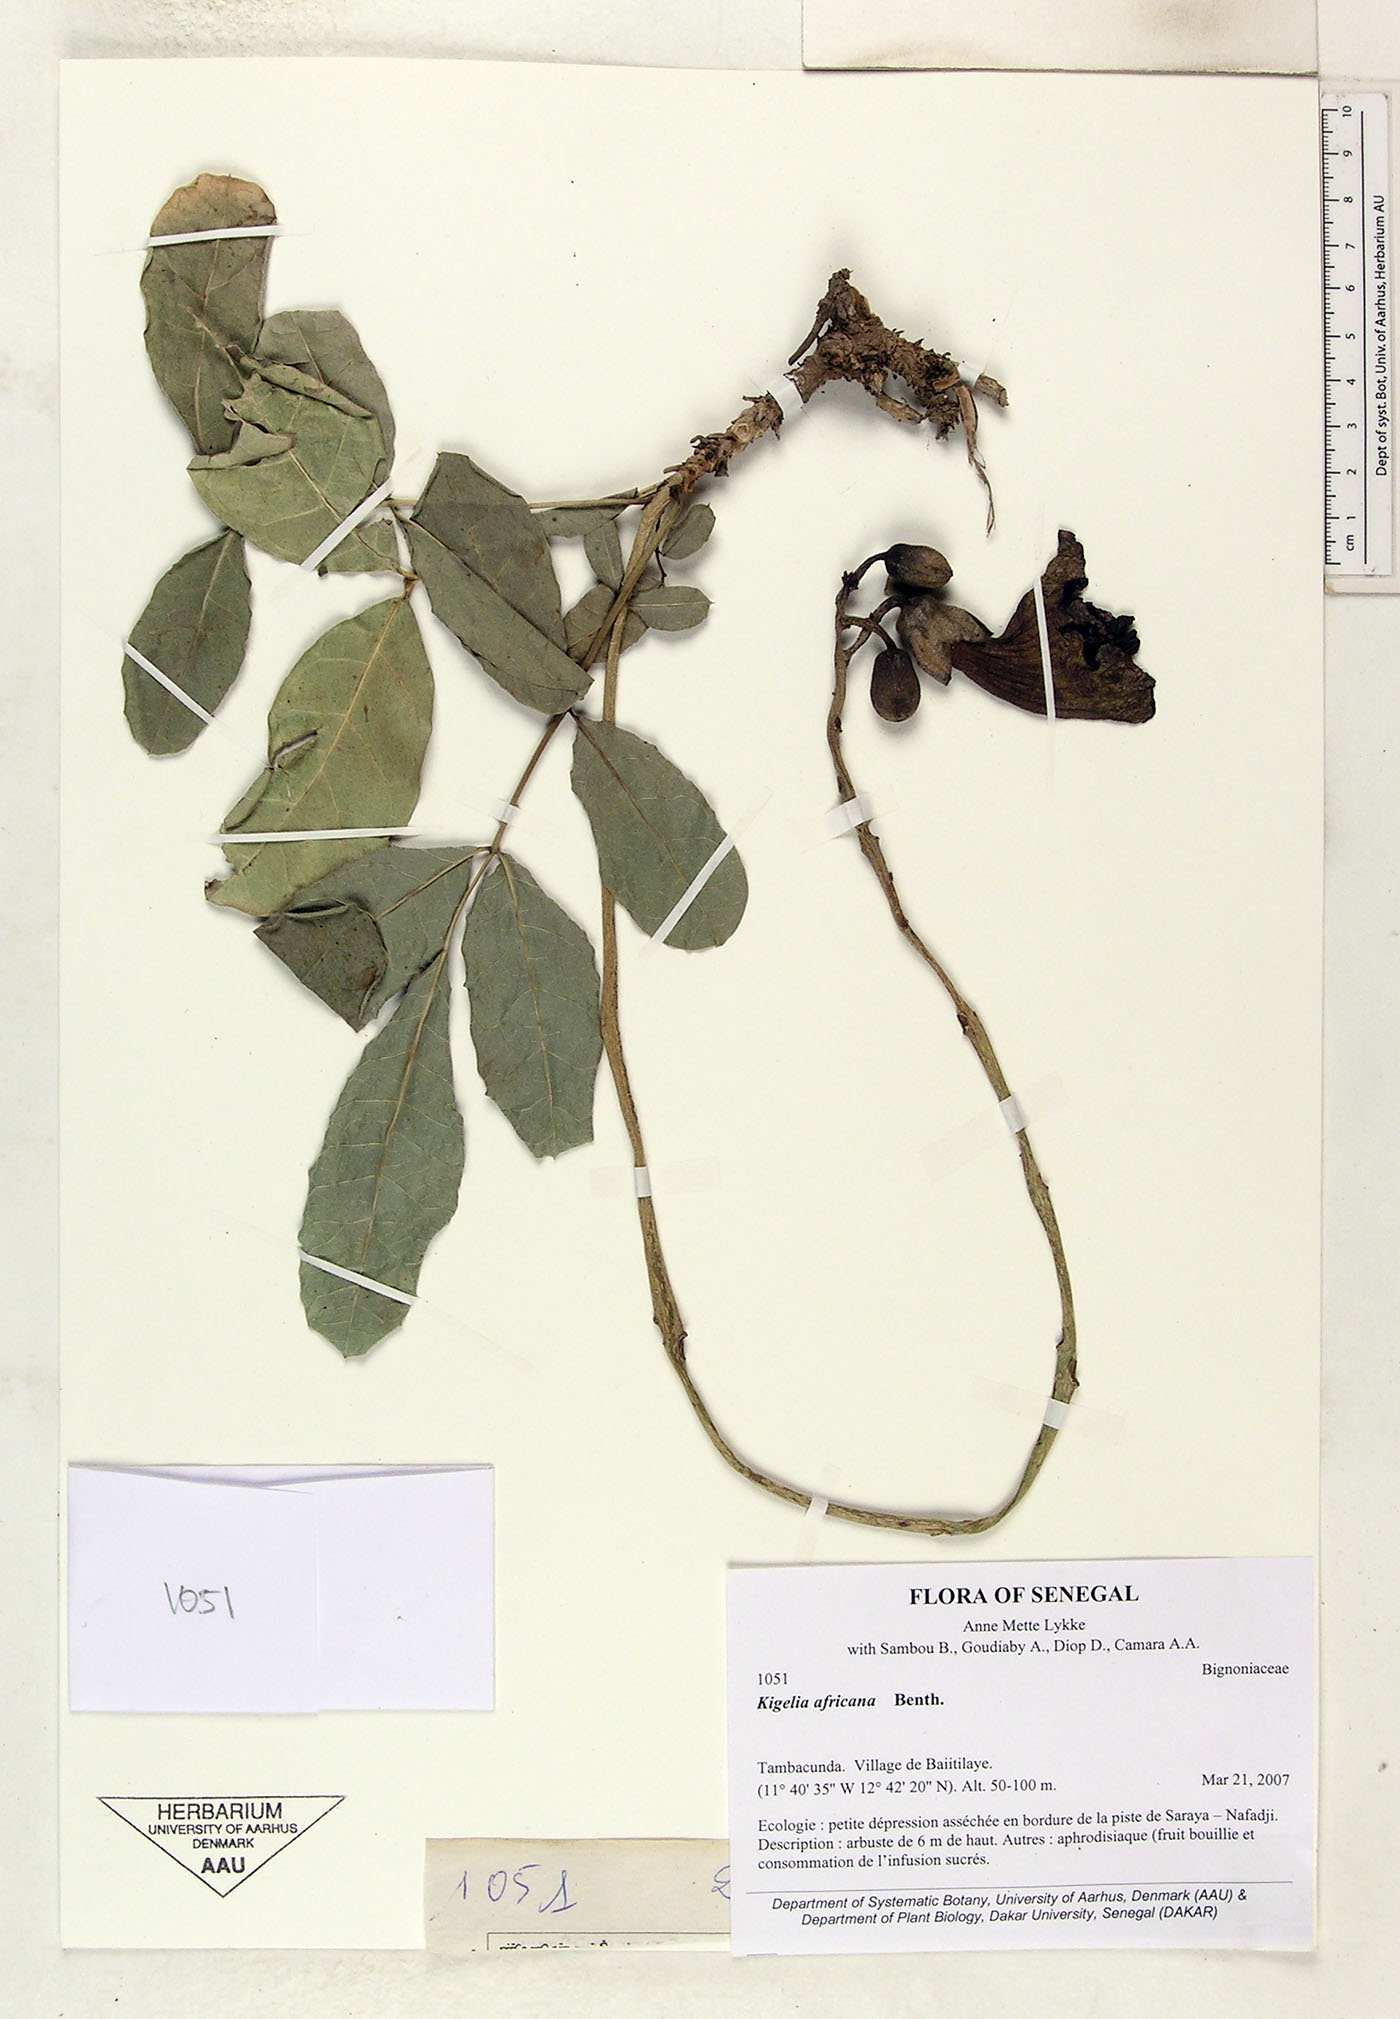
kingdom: Plantae
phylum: Tracheophyta
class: Magnoliopsida
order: Lamiales
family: Bignoniaceae
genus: Kigelia
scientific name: Kigelia africana
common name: Sausage tree
